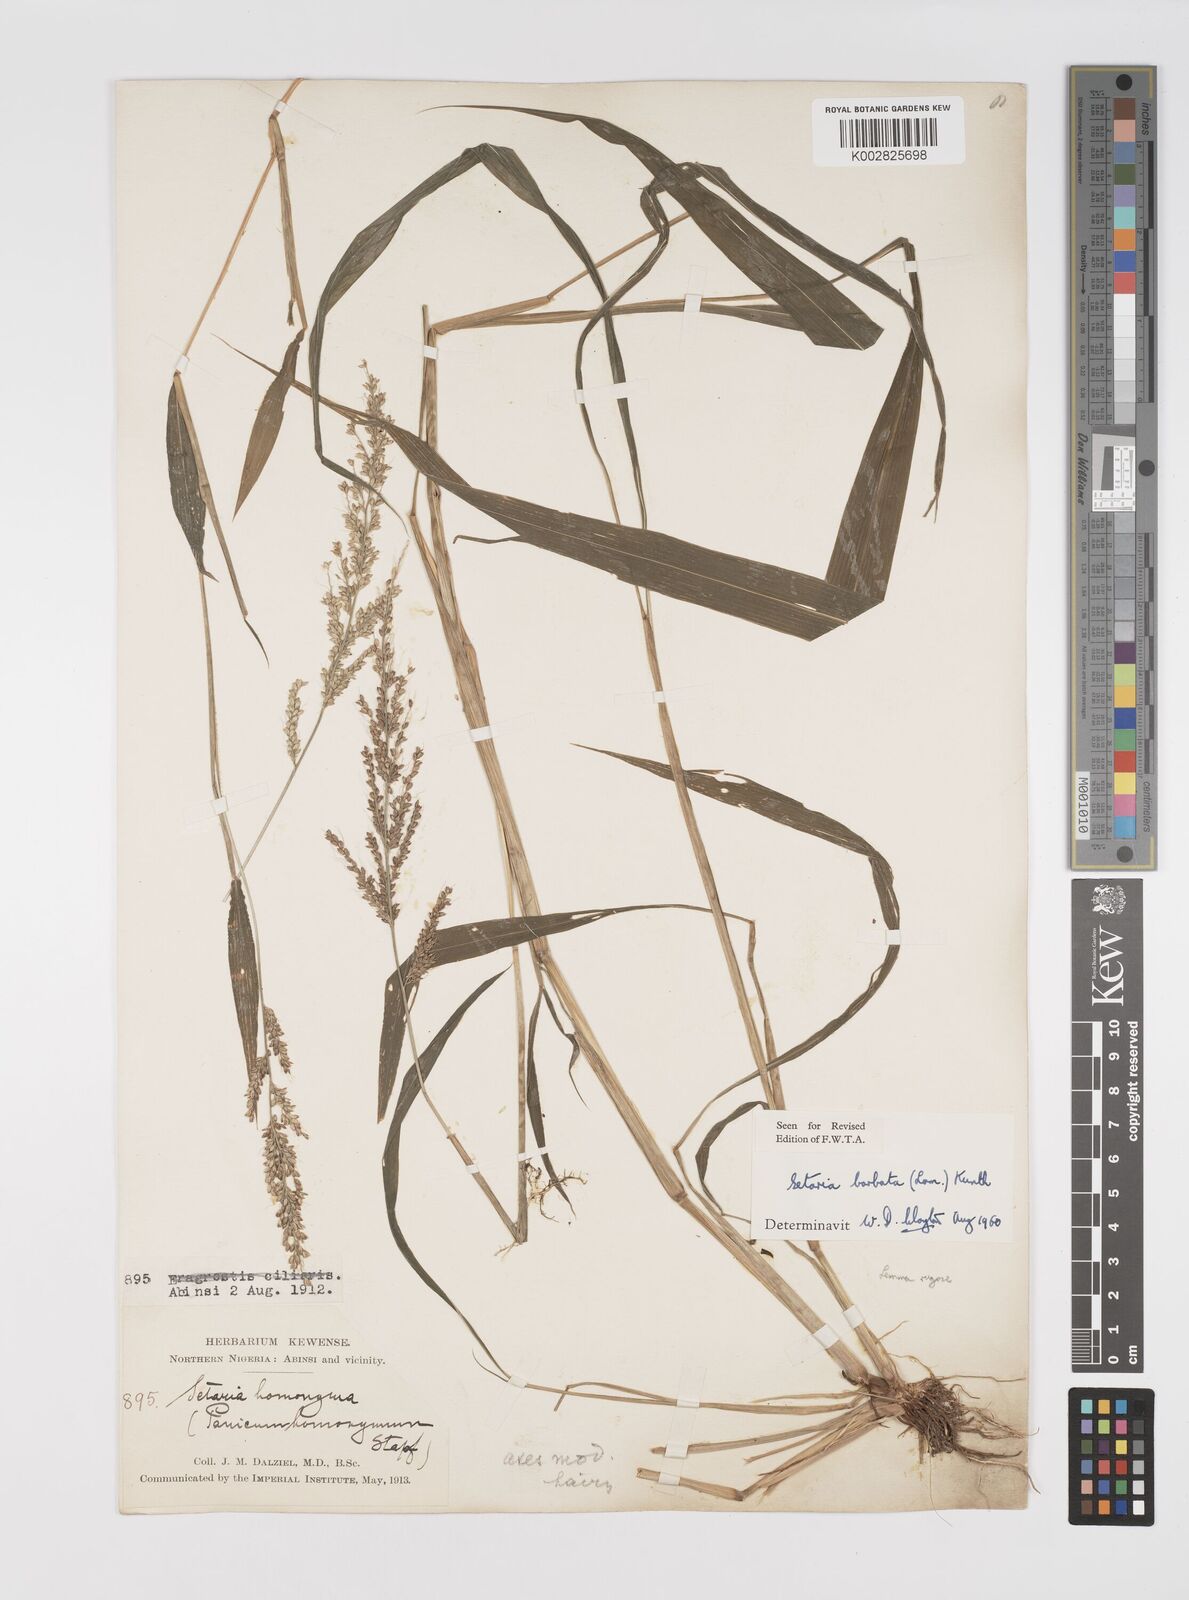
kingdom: Plantae
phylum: Tracheophyta
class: Liliopsida
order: Poales
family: Poaceae
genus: Setaria
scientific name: Setaria barbata
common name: East indian bristlegrass
